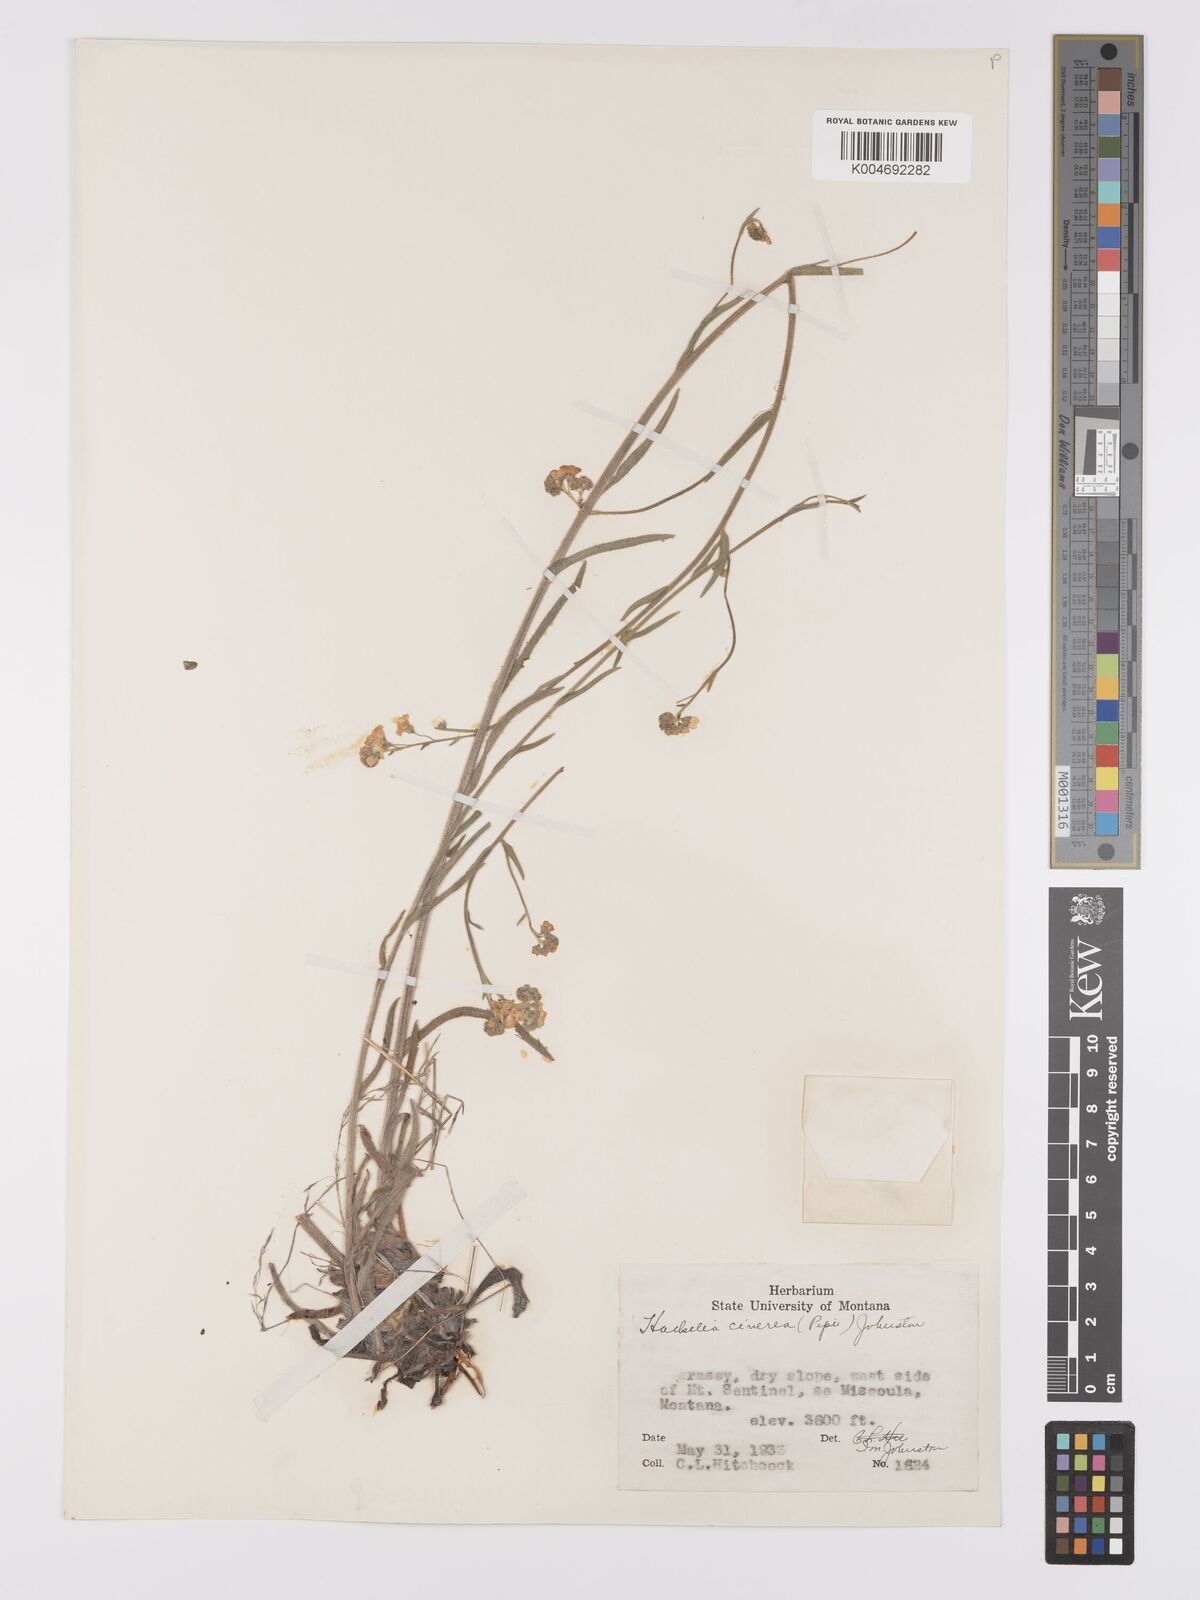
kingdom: Plantae
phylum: Tracheophyta
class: Magnoliopsida
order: Boraginales
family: Boraginaceae
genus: Hackelia
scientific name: Hackelia cinerea
